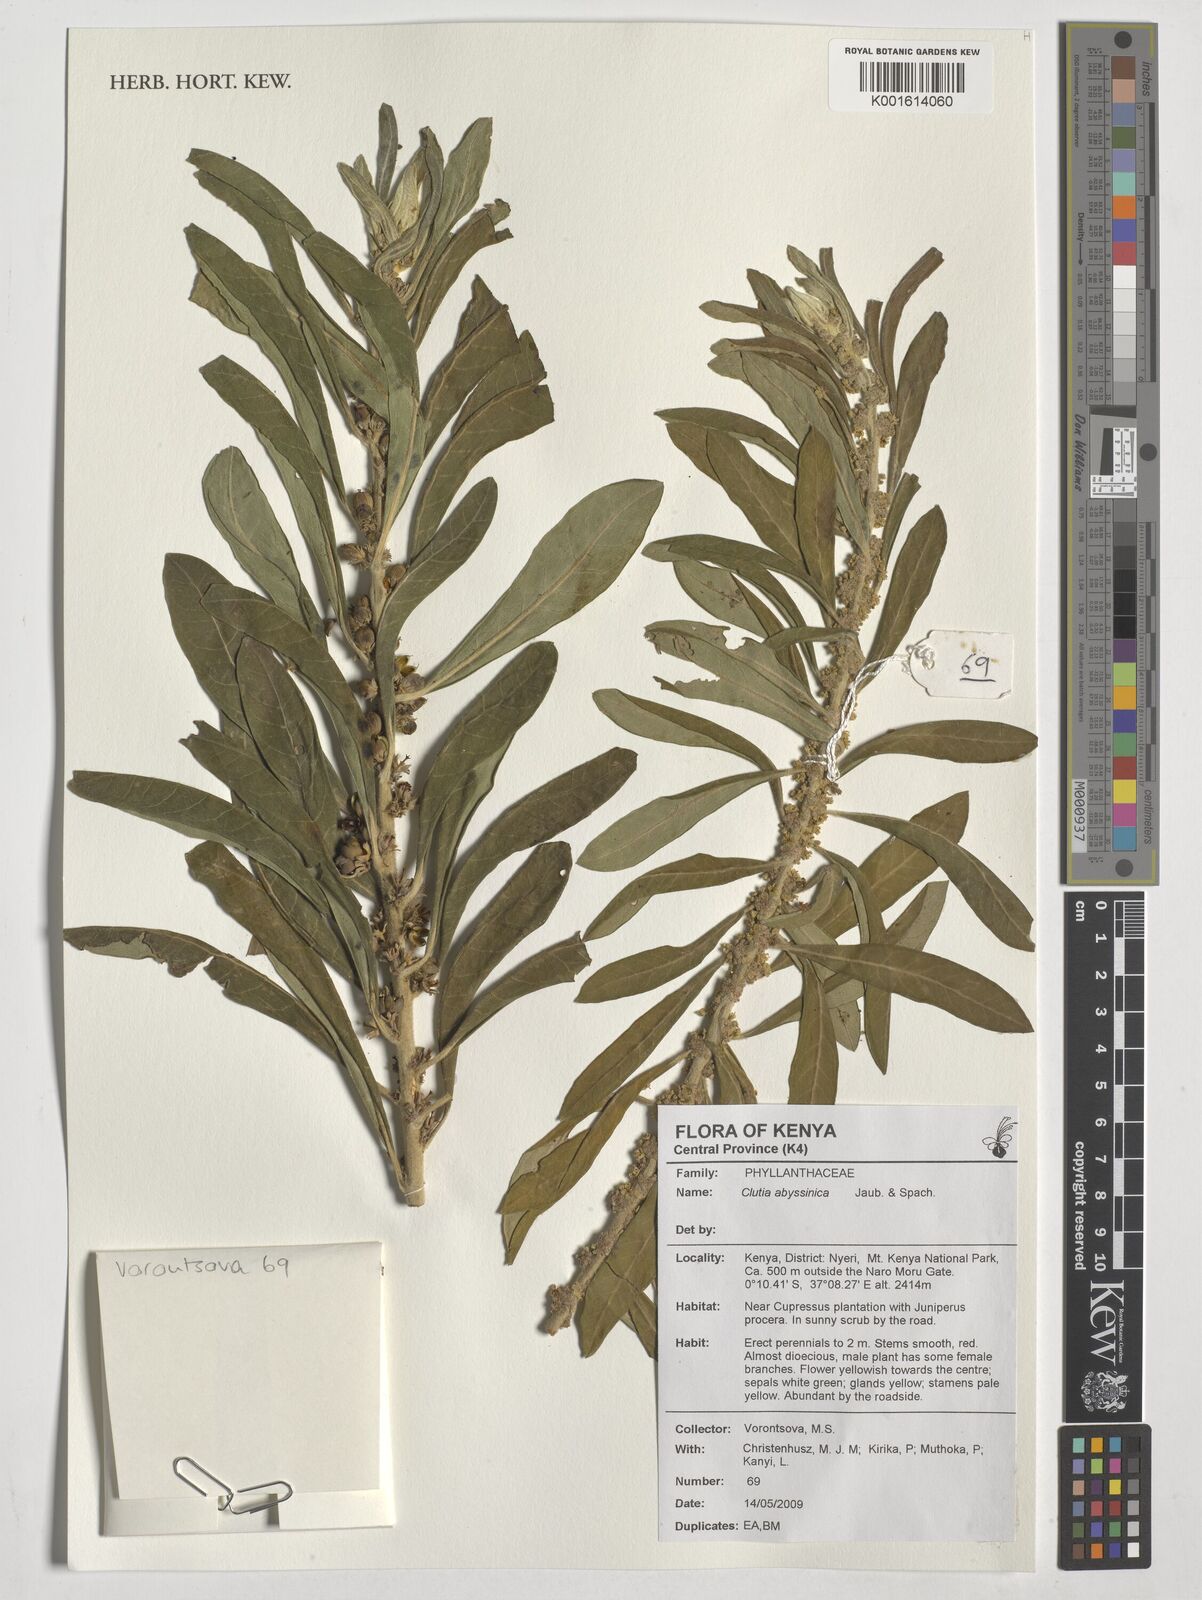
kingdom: Plantae
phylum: Tracheophyta
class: Magnoliopsida
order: Malpighiales
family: Peraceae
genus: Clutia
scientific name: Clutia abyssinica
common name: Large lightning bush
